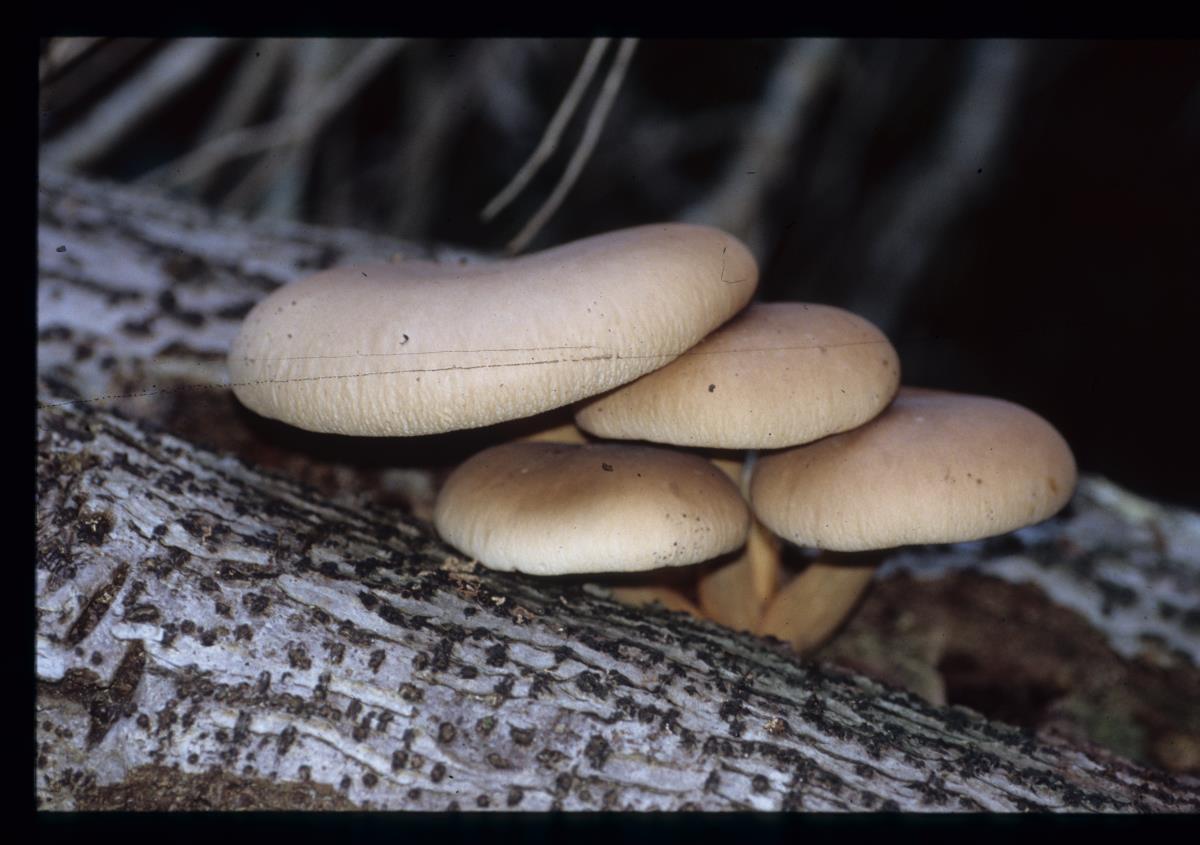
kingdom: Fungi
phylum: Basidiomycota
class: Agaricomycetes
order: Agaricales
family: Tubariaceae
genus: Cyclocybe
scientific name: Cyclocybe parasitica
